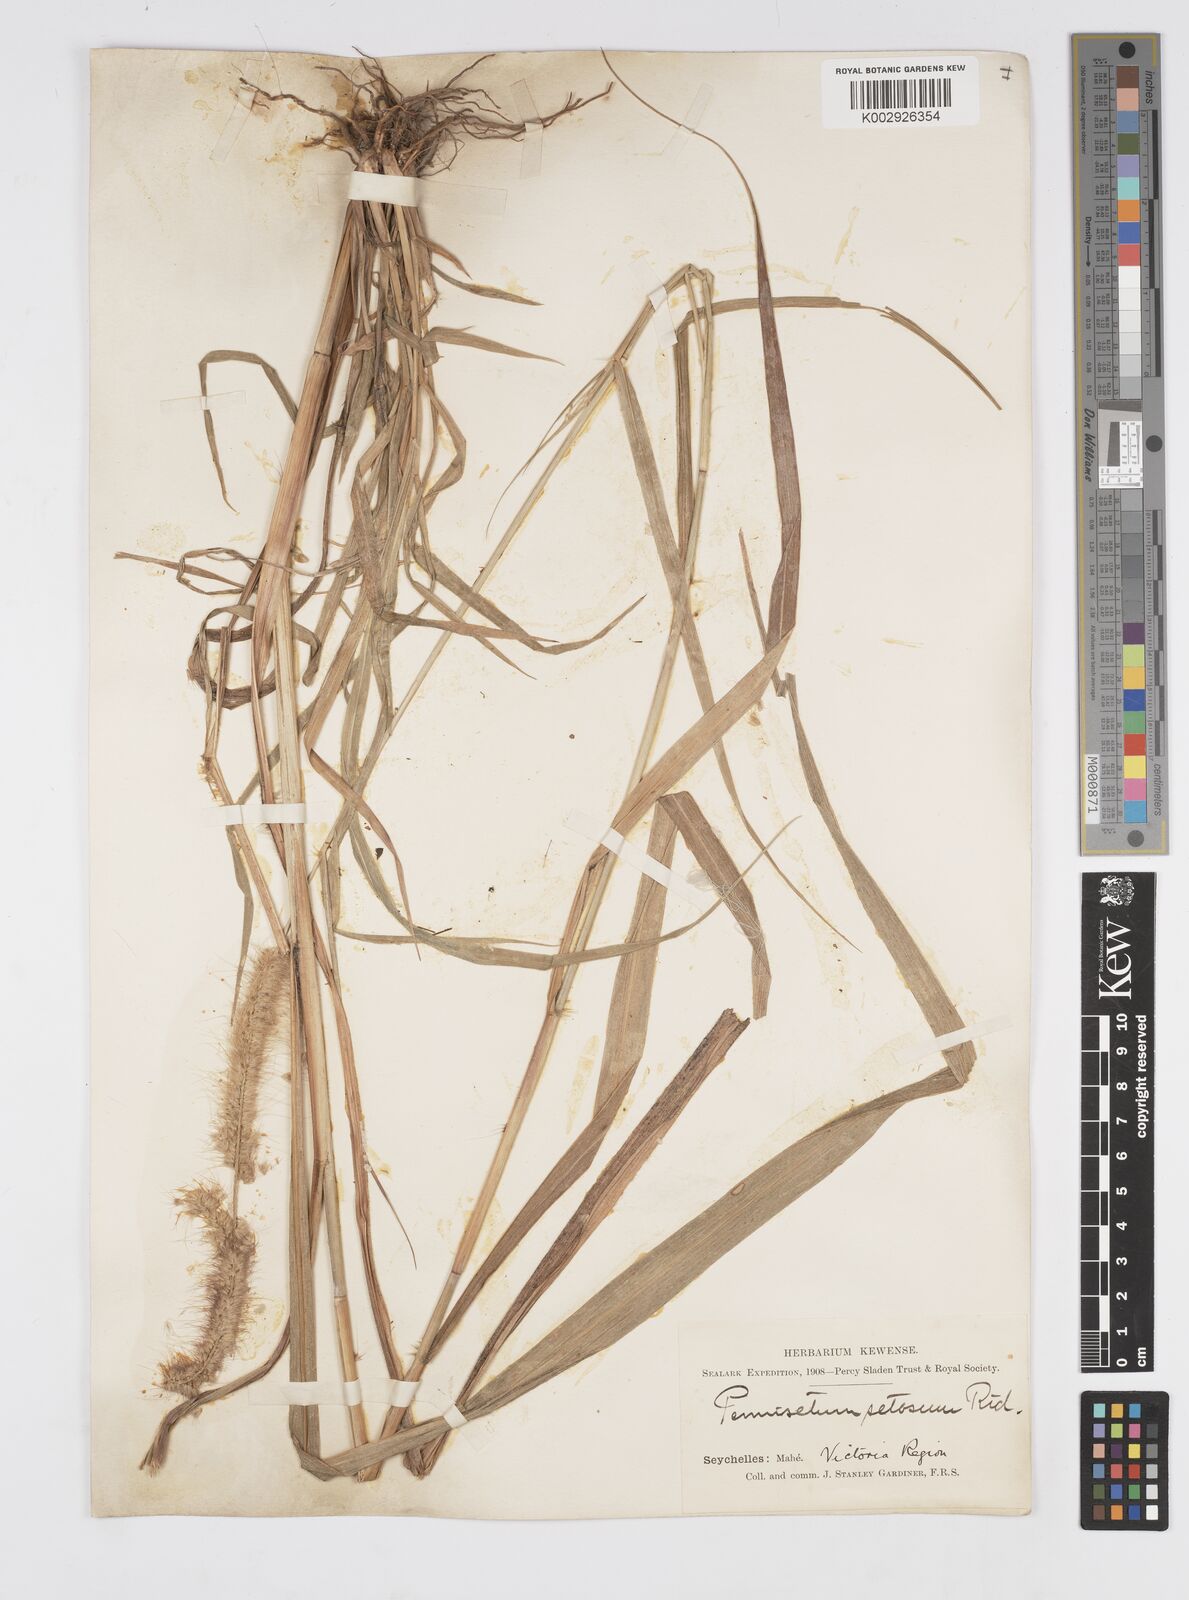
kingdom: Plantae
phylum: Tracheophyta
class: Liliopsida
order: Poales
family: Poaceae
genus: Setaria
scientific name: Setaria parviflora
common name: Knotroot bristle-grass
